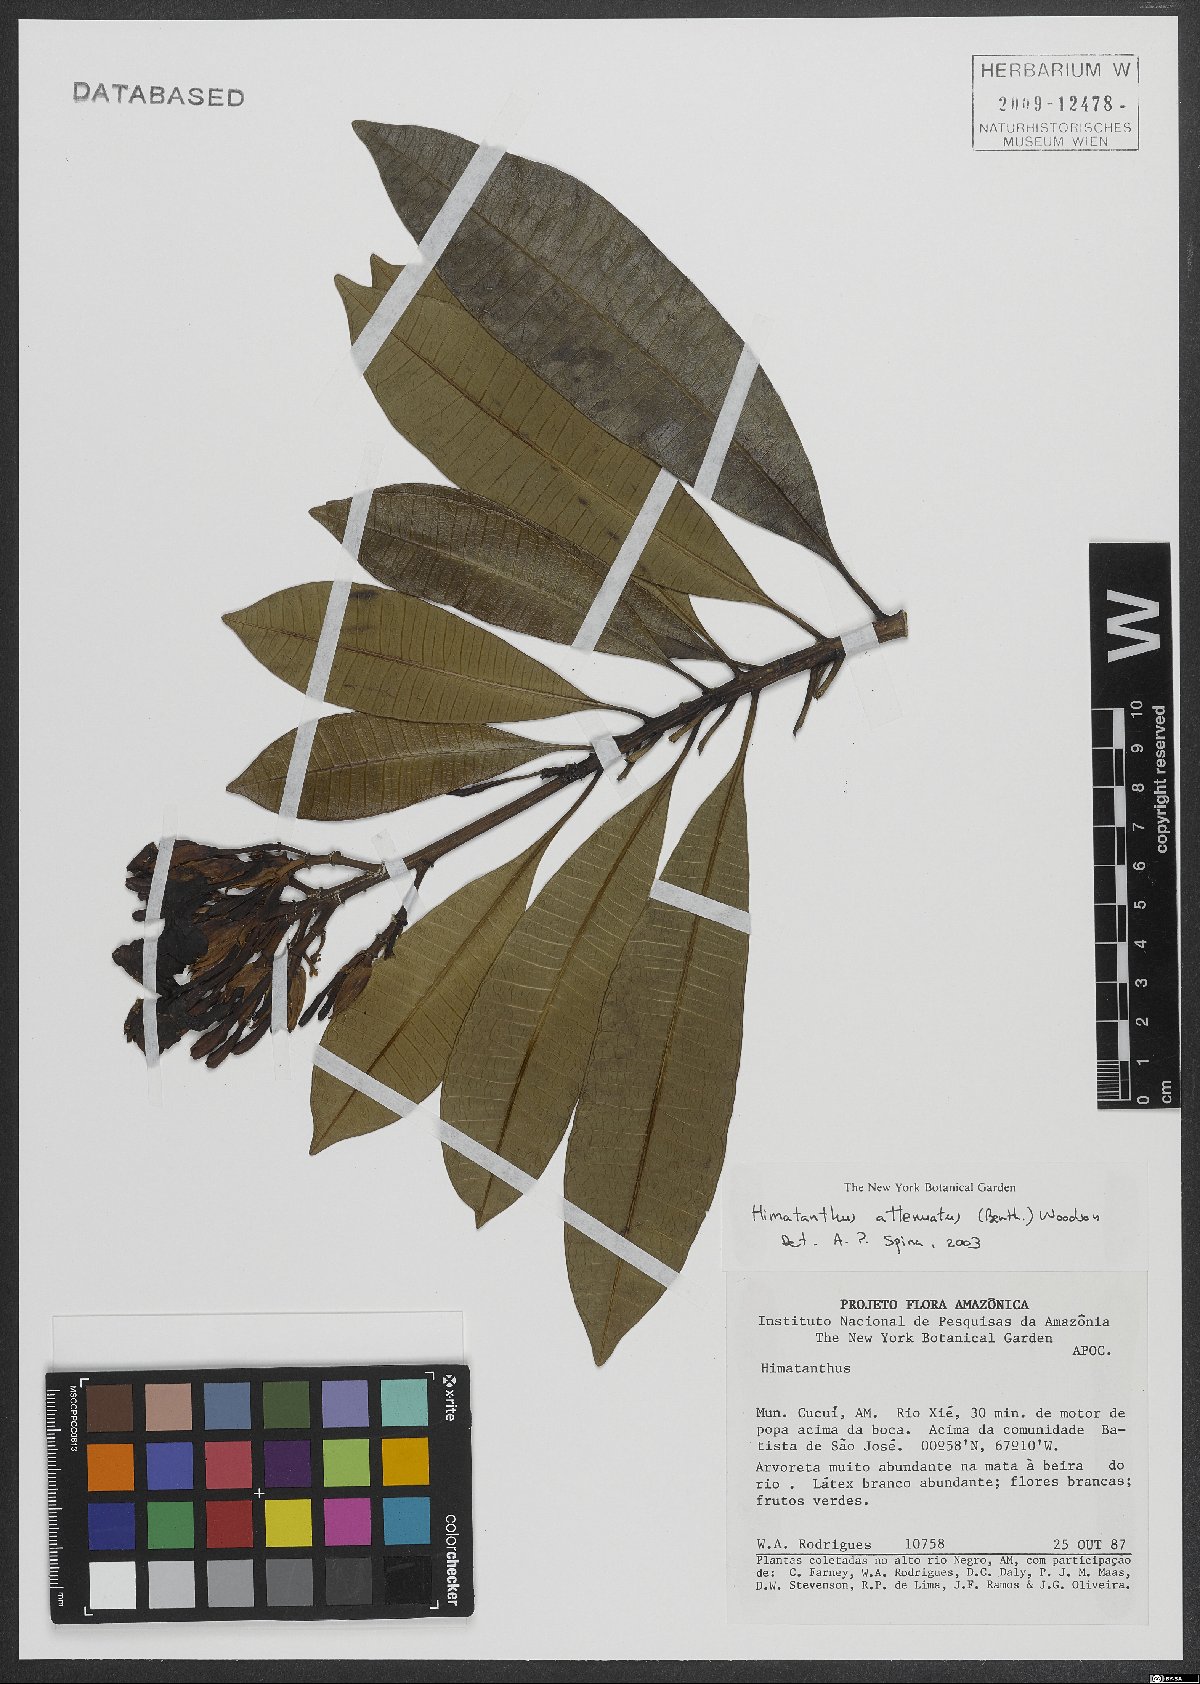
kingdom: Plantae
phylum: Tracheophyta
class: Magnoliopsida
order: Gentianales
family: Apocynaceae
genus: Himatanthus
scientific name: Himatanthus attenuatus
